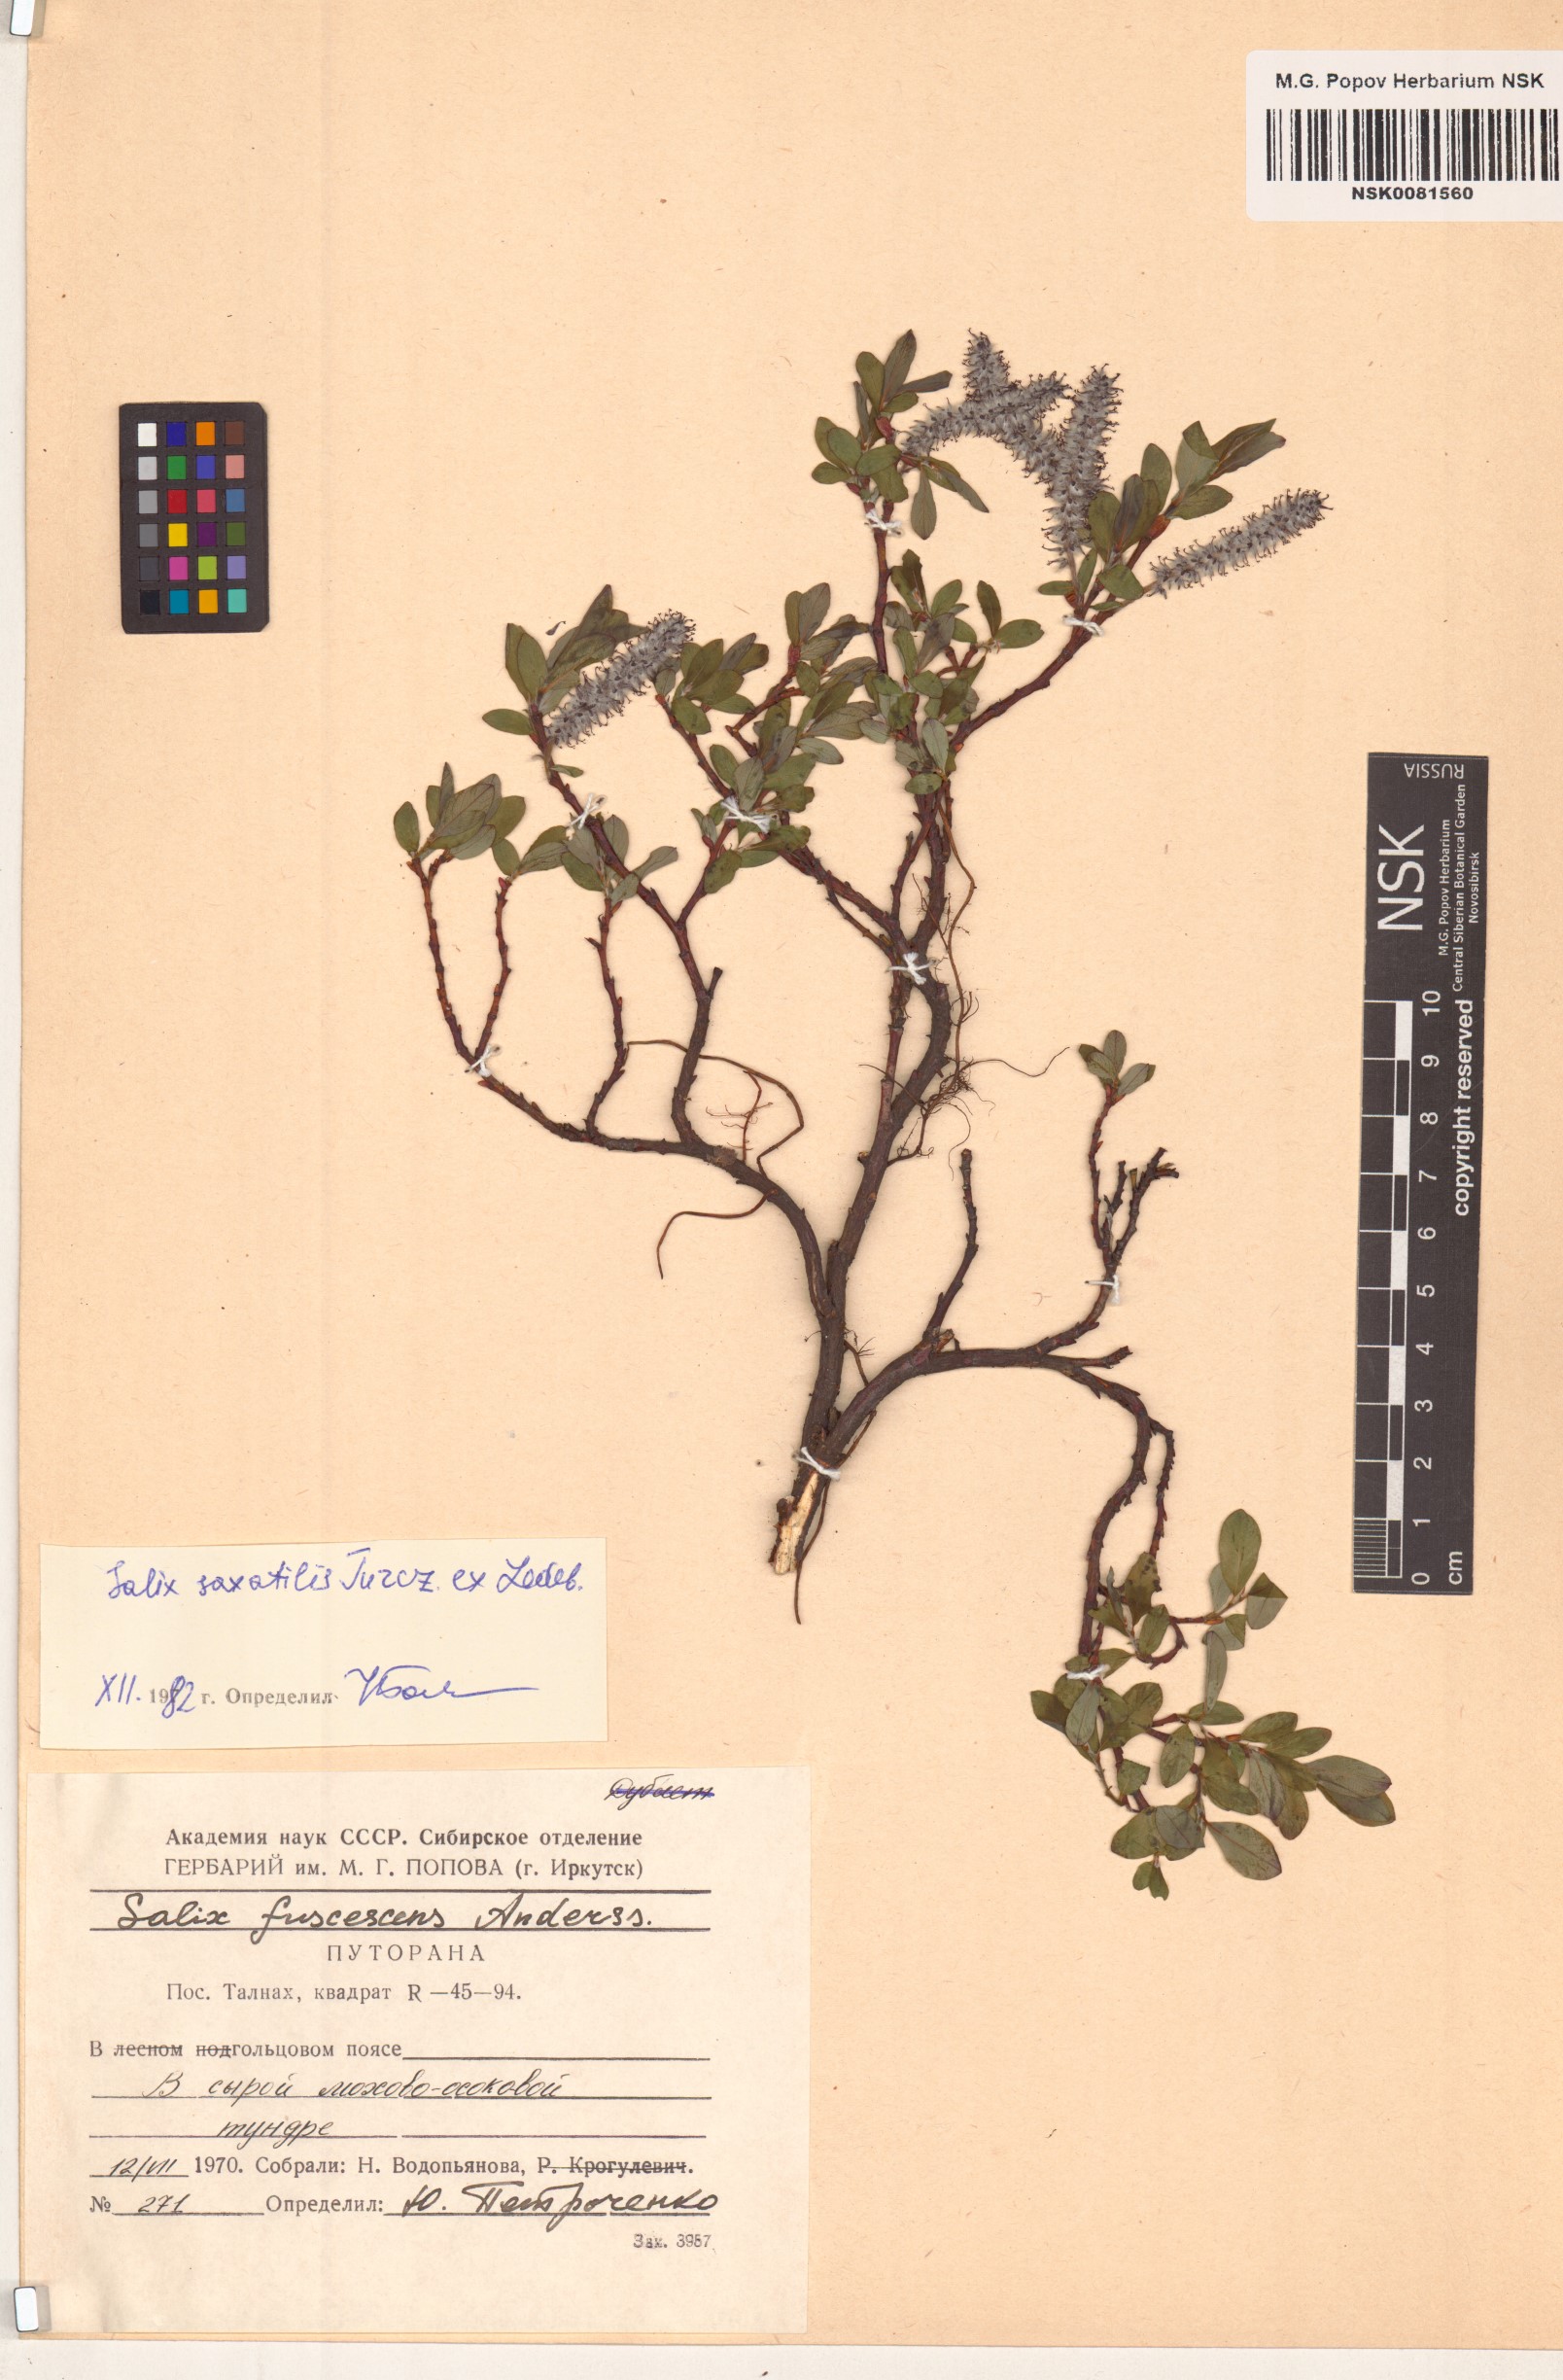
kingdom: Plantae
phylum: Tracheophyta
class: Magnoliopsida
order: Malpighiales
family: Salicaceae
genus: Salix
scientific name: Salix saxatilis
